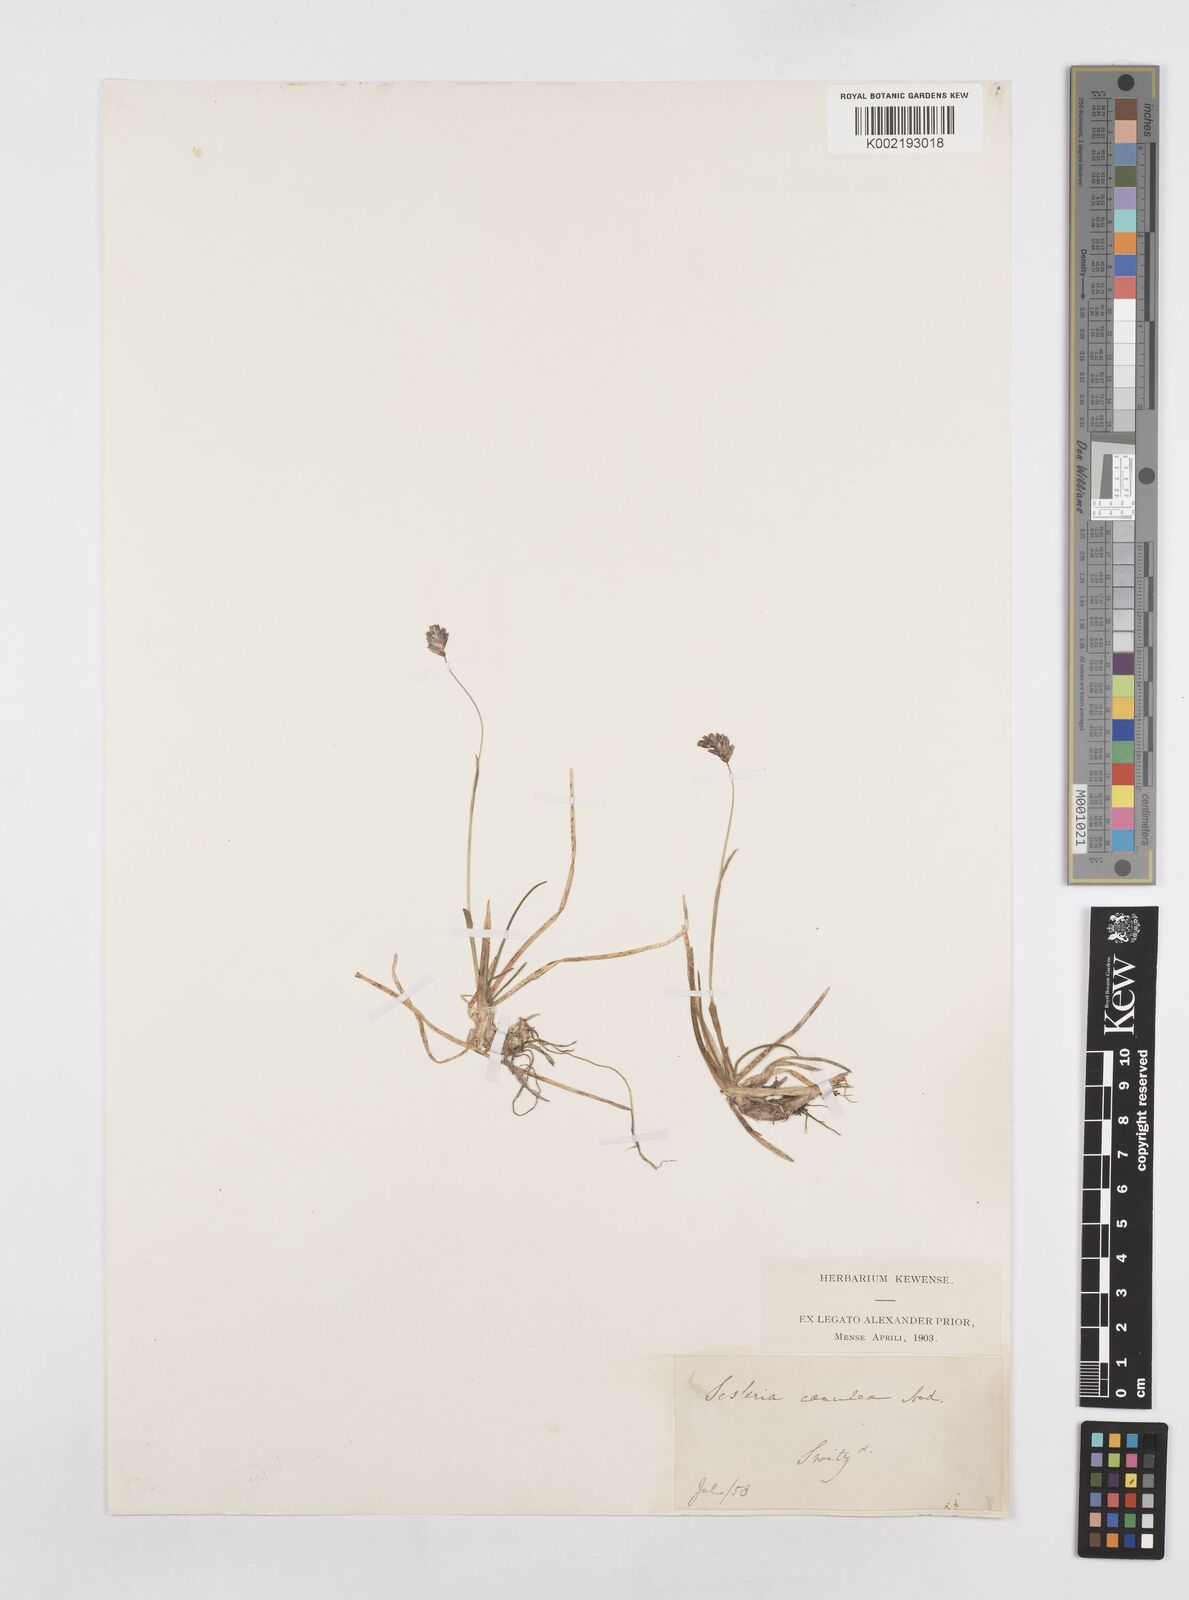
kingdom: Plantae
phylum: Tracheophyta
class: Liliopsida
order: Poales
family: Poaceae
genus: Sesleria
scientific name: Sesleria caerulea
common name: Blue moor-grass
